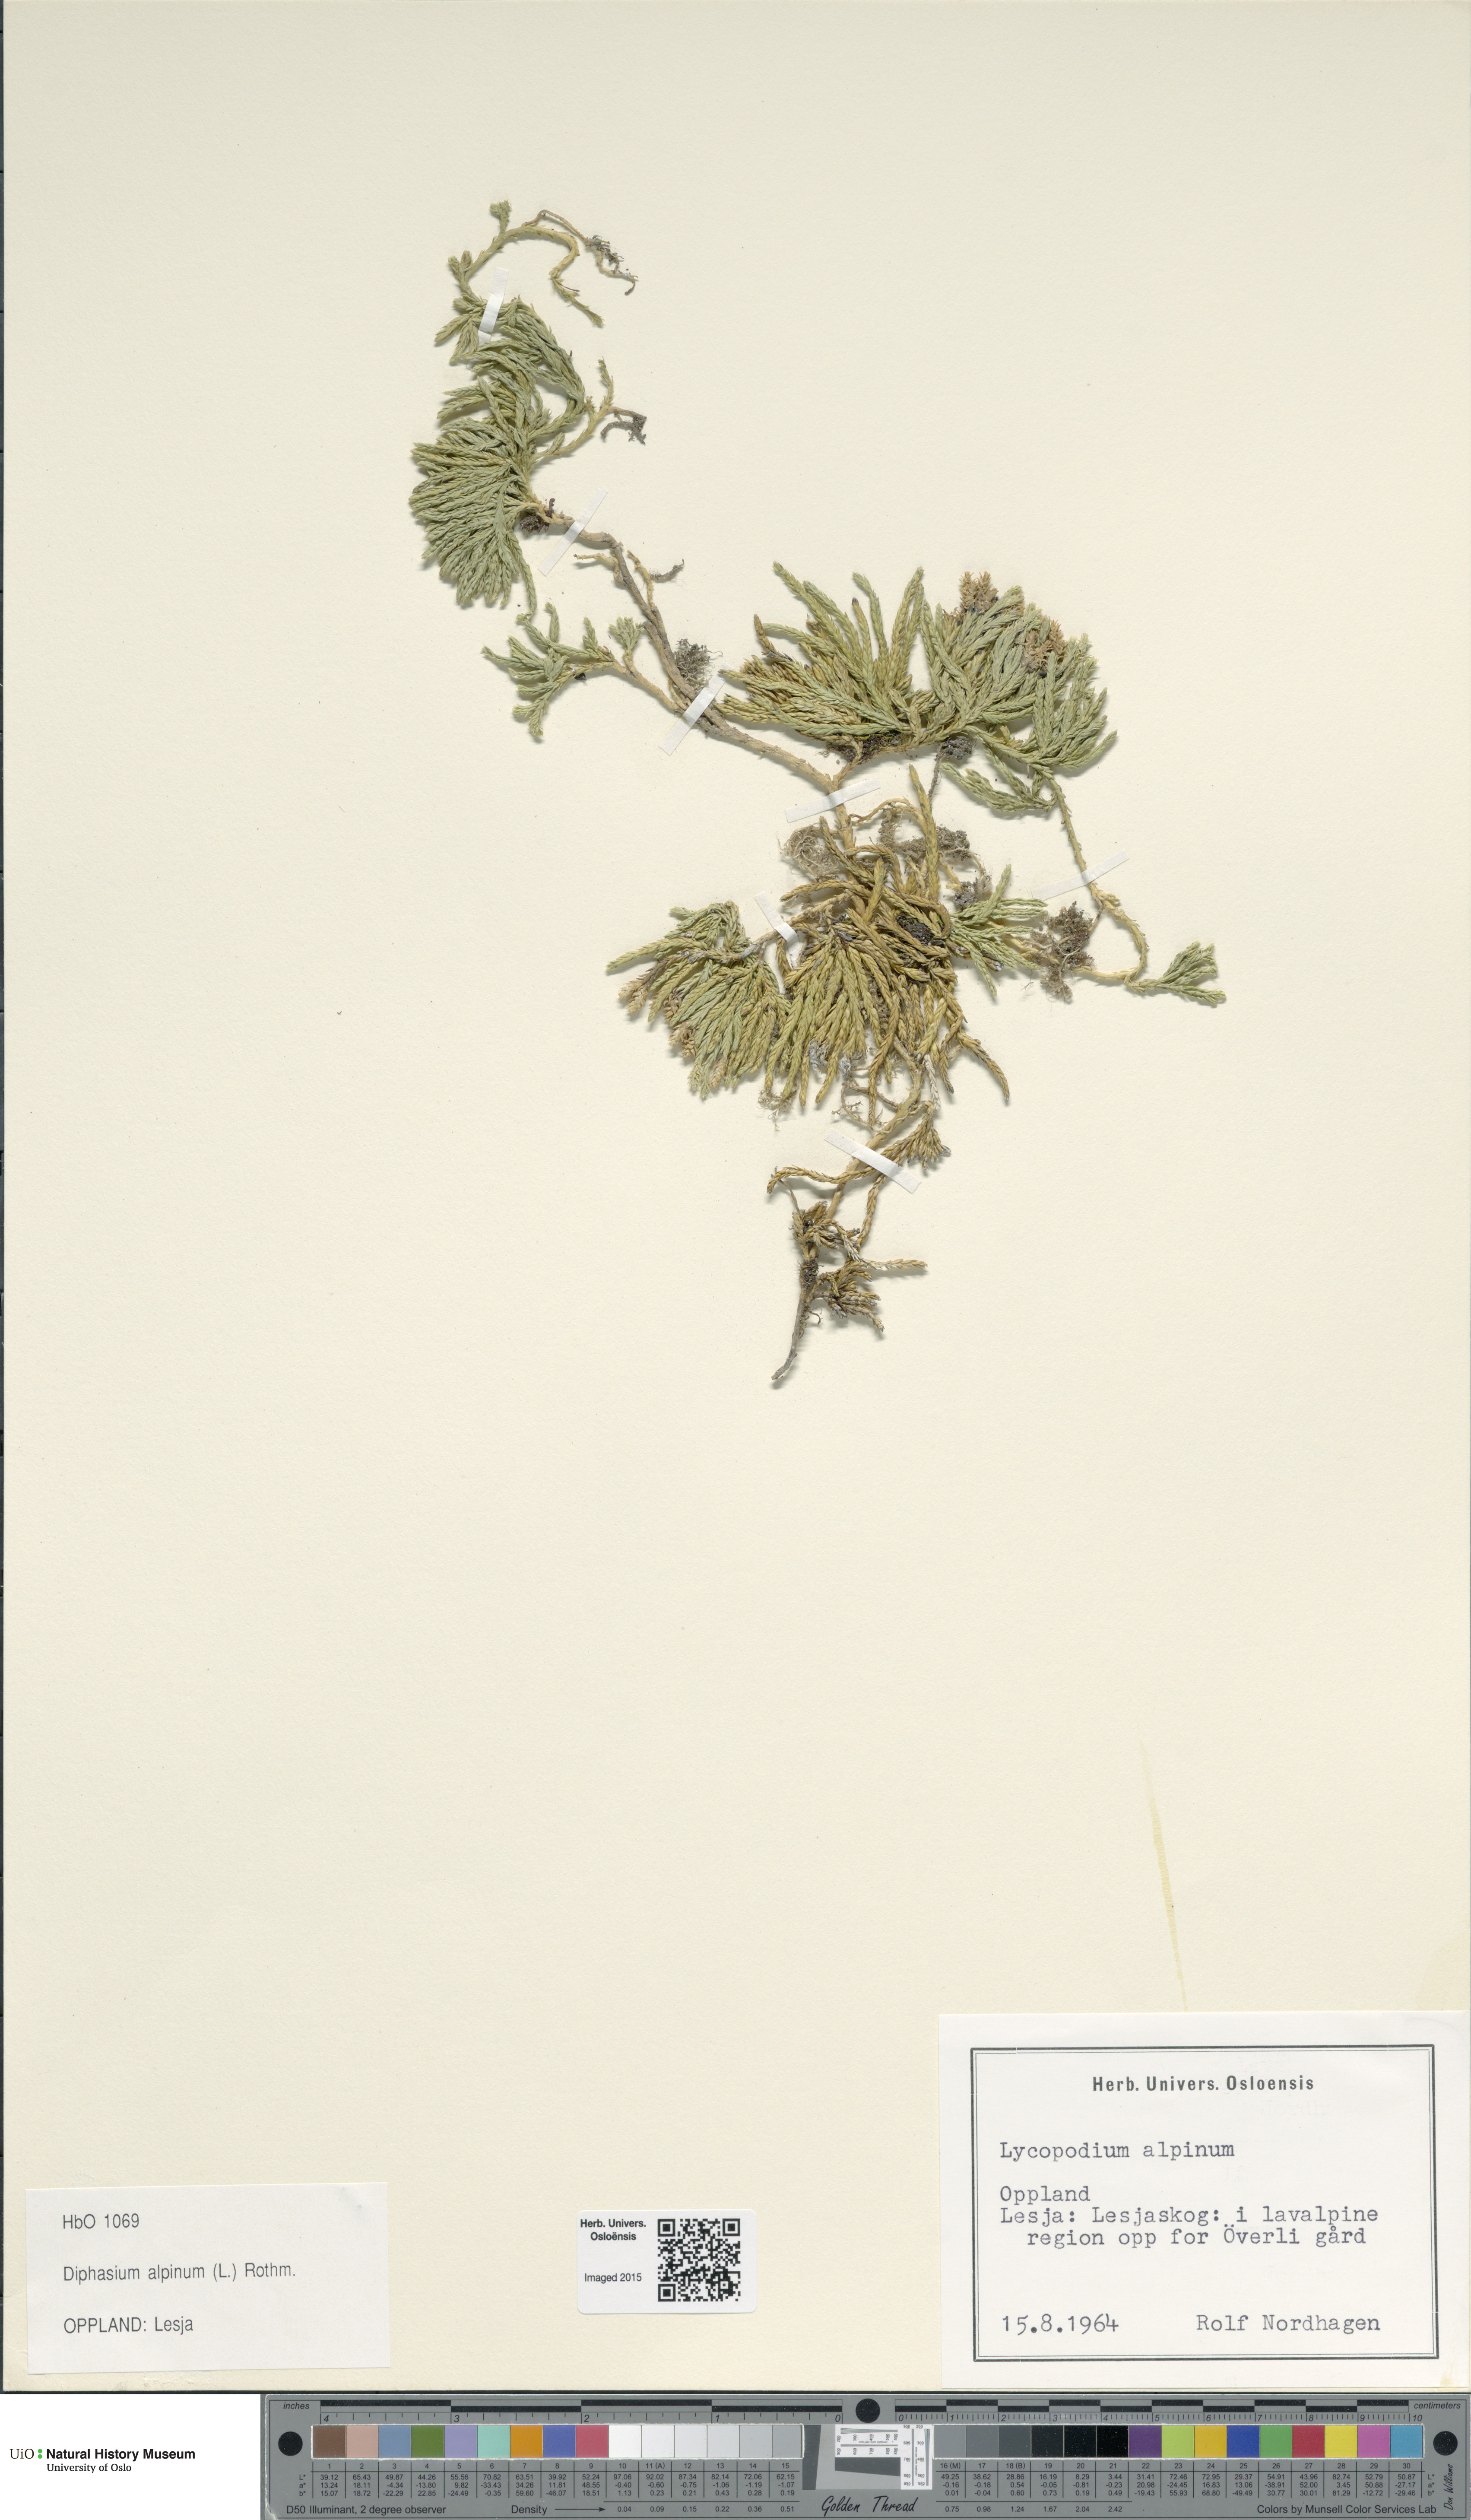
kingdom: Plantae
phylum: Tracheophyta
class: Lycopodiopsida
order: Lycopodiales
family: Lycopodiaceae
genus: Diphasiastrum
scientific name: Diphasiastrum alpinum
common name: Alpine clubmoss
